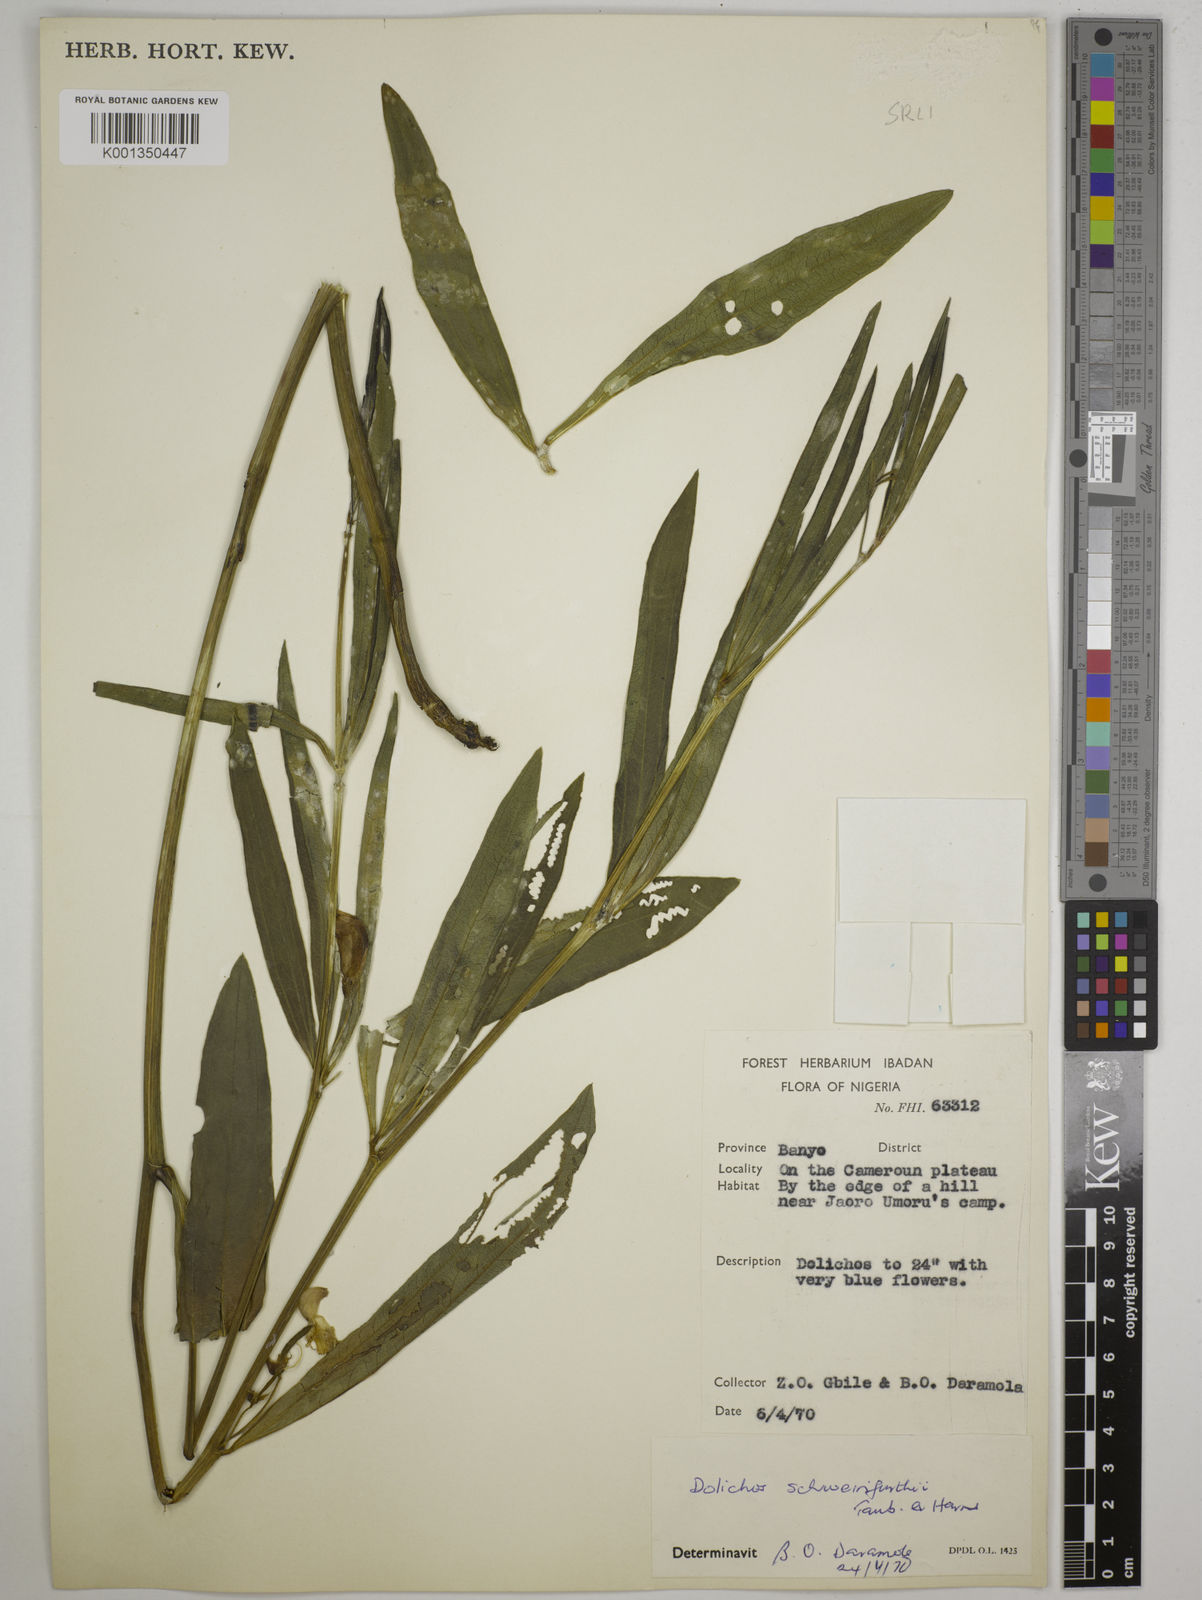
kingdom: Plantae
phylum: Tracheophyta
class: Magnoliopsida
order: Fabales
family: Fabaceae
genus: Dolichos
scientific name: Dolichos schweinfurthii
